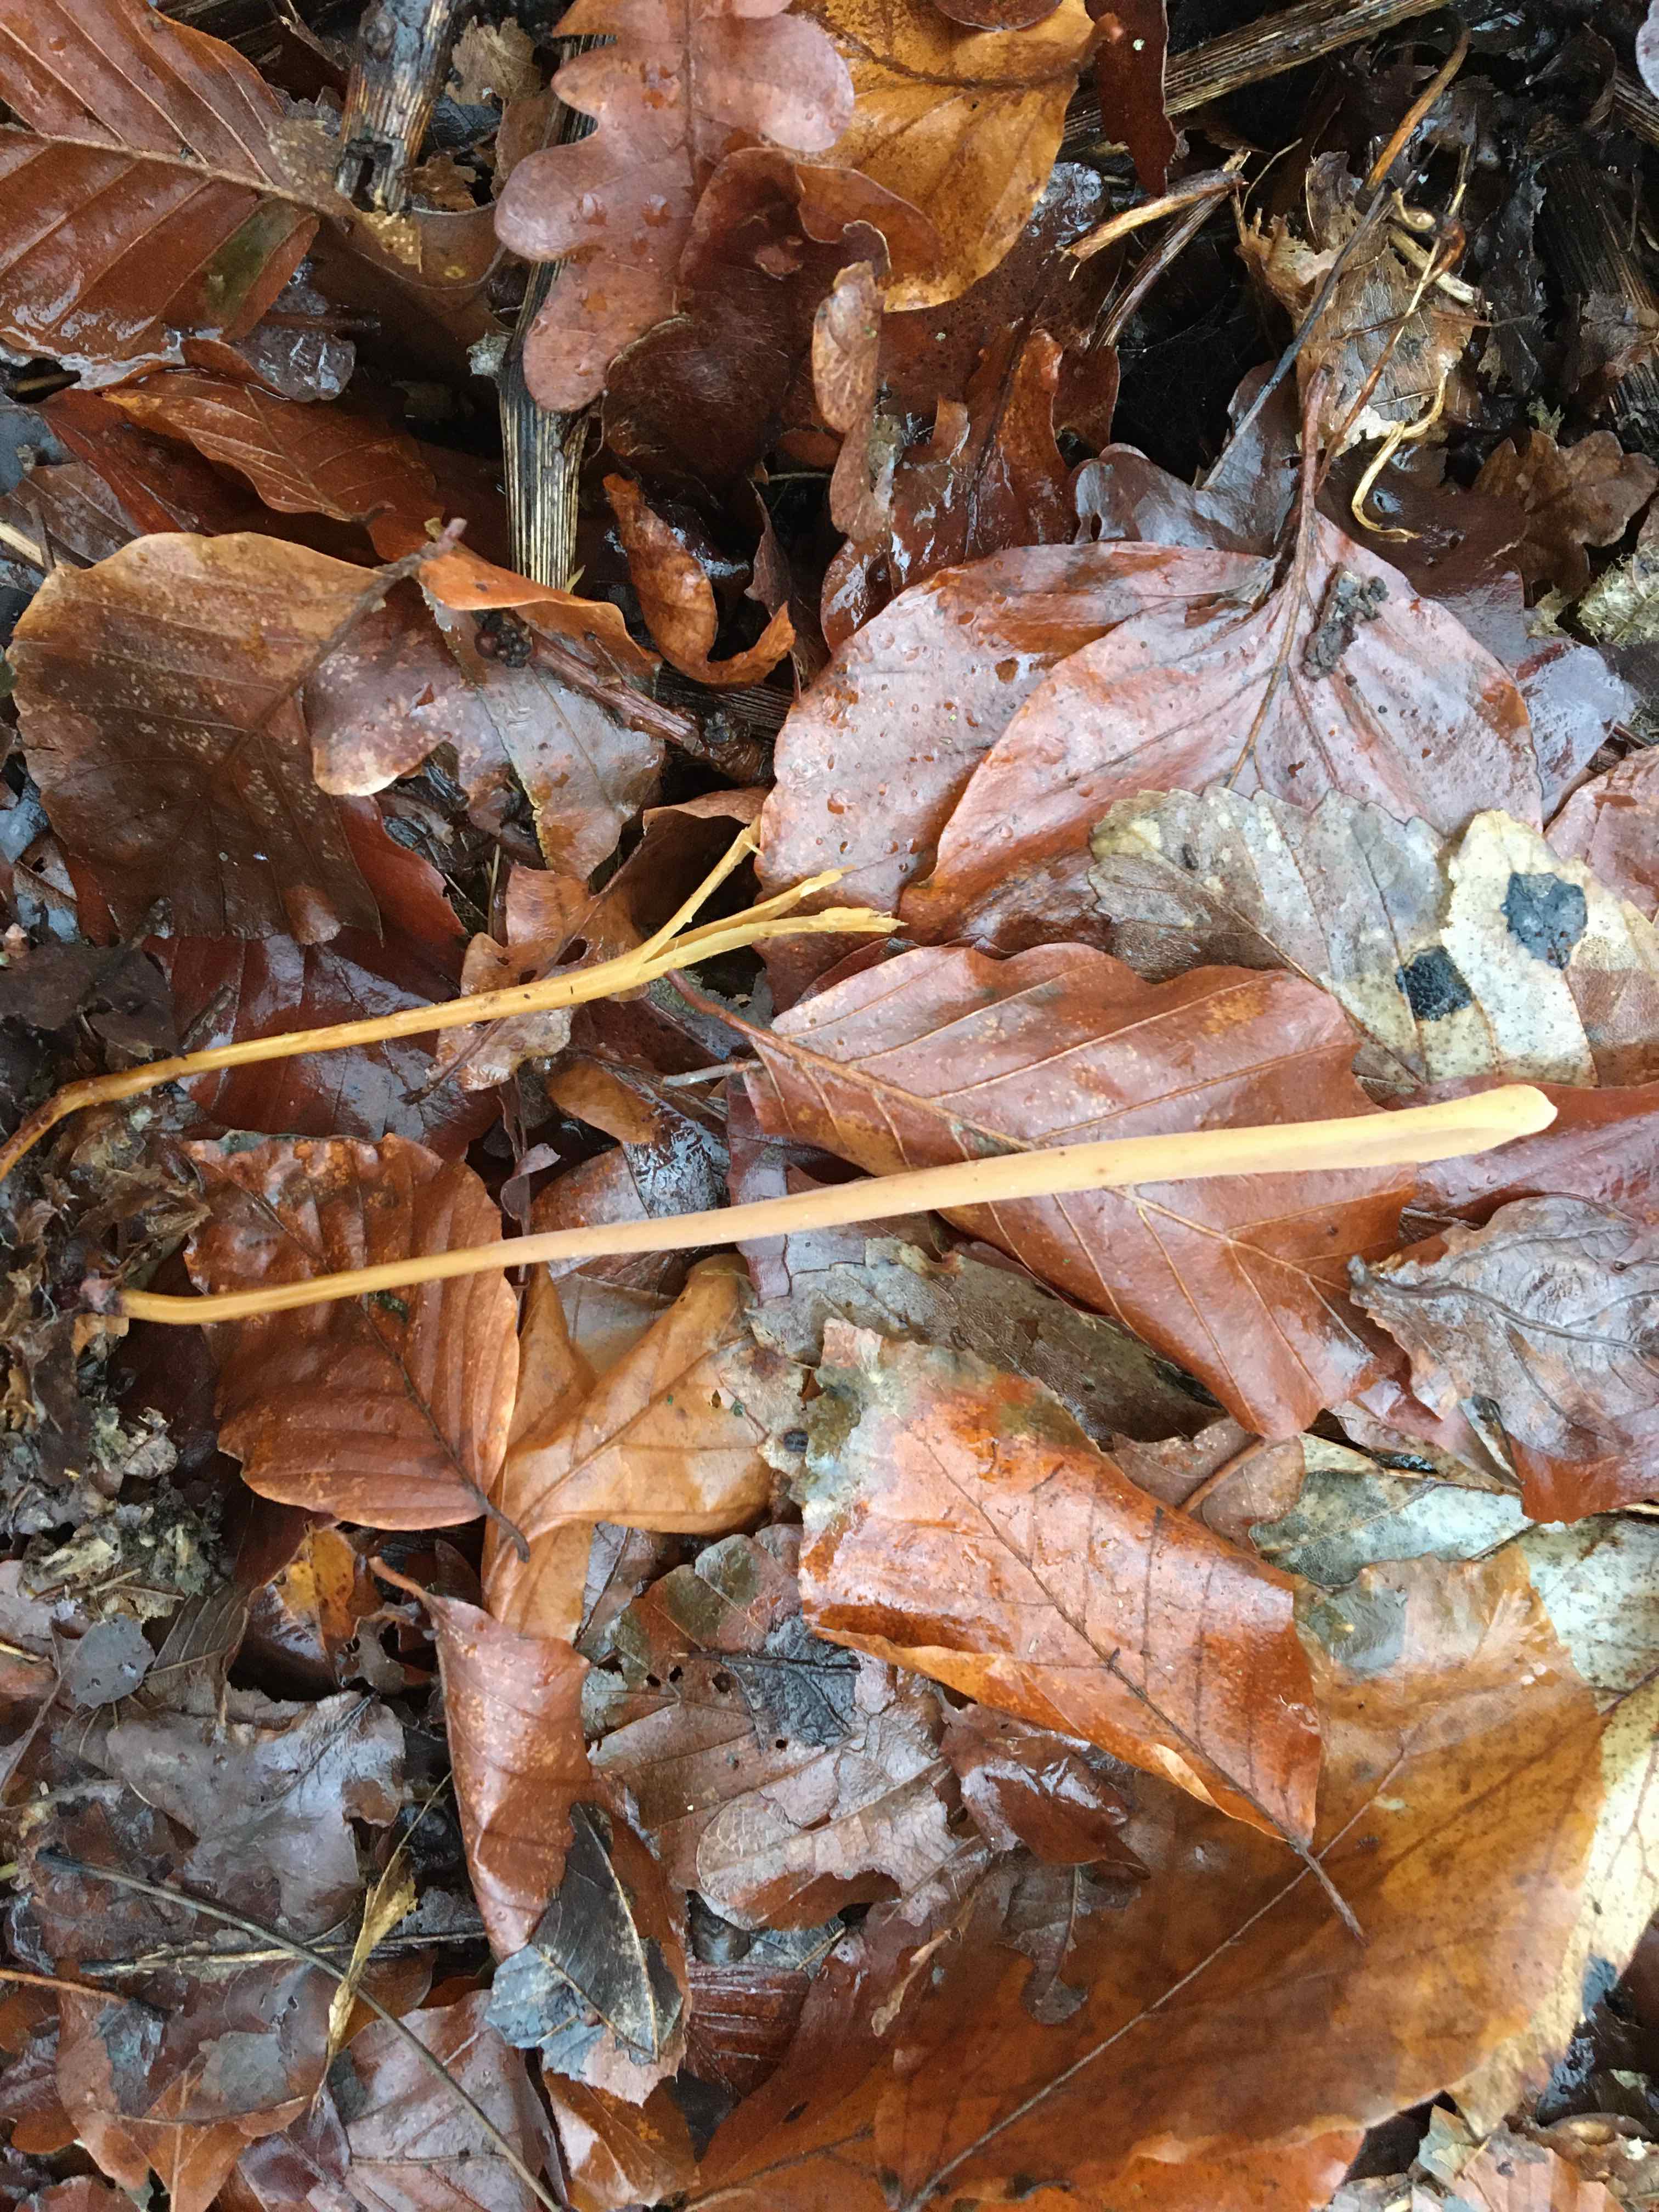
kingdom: Fungi
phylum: Basidiomycota
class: Agaricomycetes
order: Agaricales
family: Typhulaceae
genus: Typhula
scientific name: Typhula fistulosa
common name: pibet rørkølle
